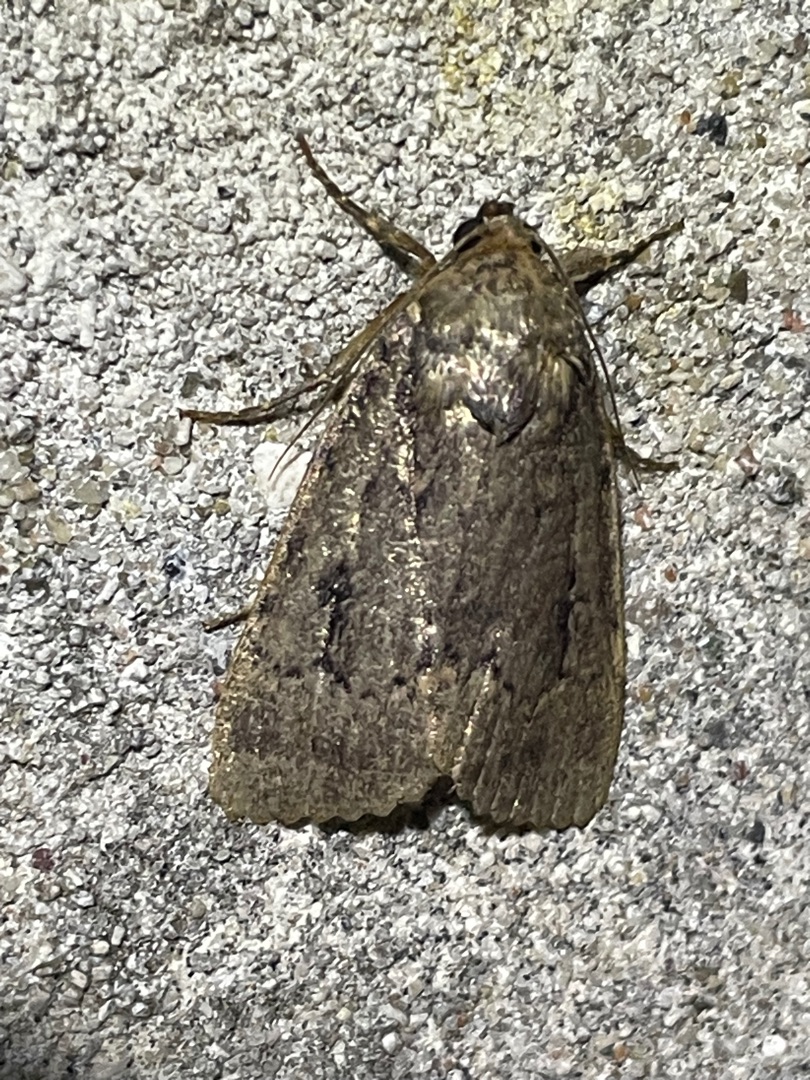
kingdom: Animalia
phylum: Arthropoda
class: Insecta
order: Lepidoptera
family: Noctuidae
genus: Amphipyra
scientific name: Amphipyra pyramidea
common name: Pyramideugle
